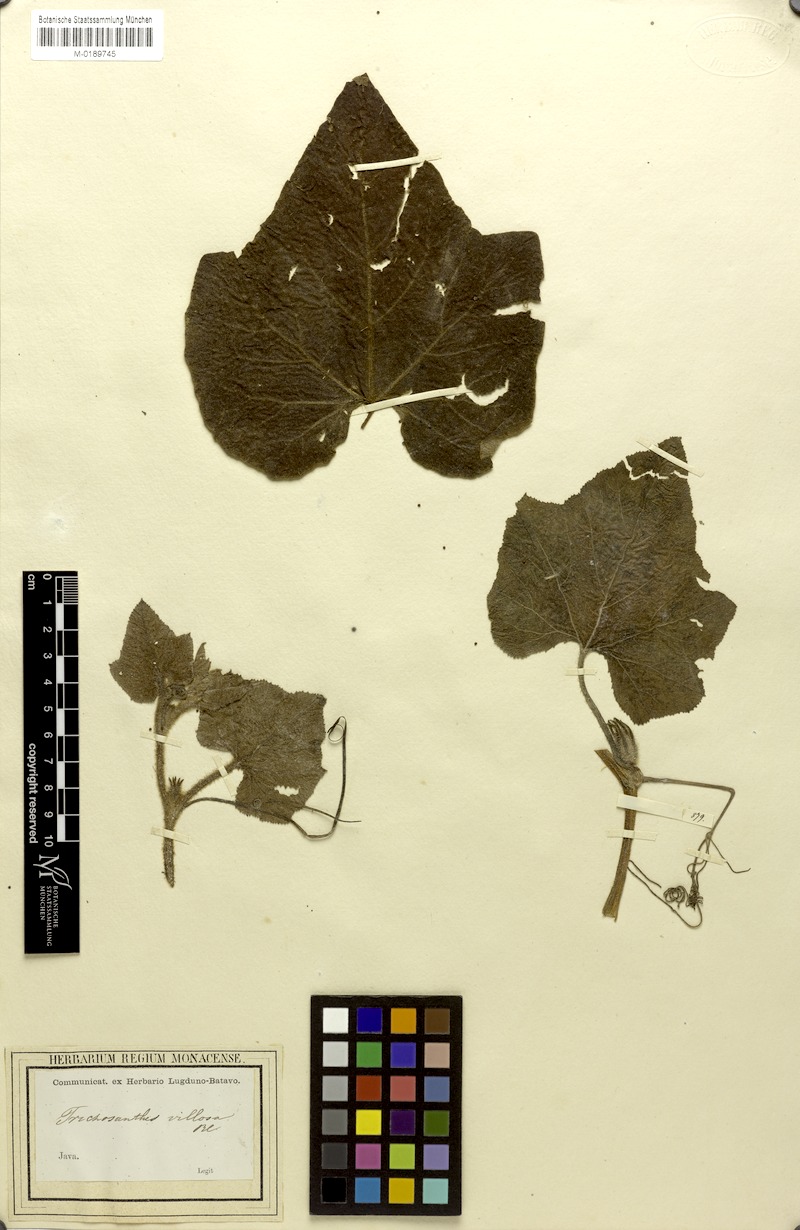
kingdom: Plantae
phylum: Tracheophyta
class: Magnoliopsida
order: Cucurbitales
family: Cucurbitaceae
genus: Trichosanthes
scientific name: Trichosanthes villosa
